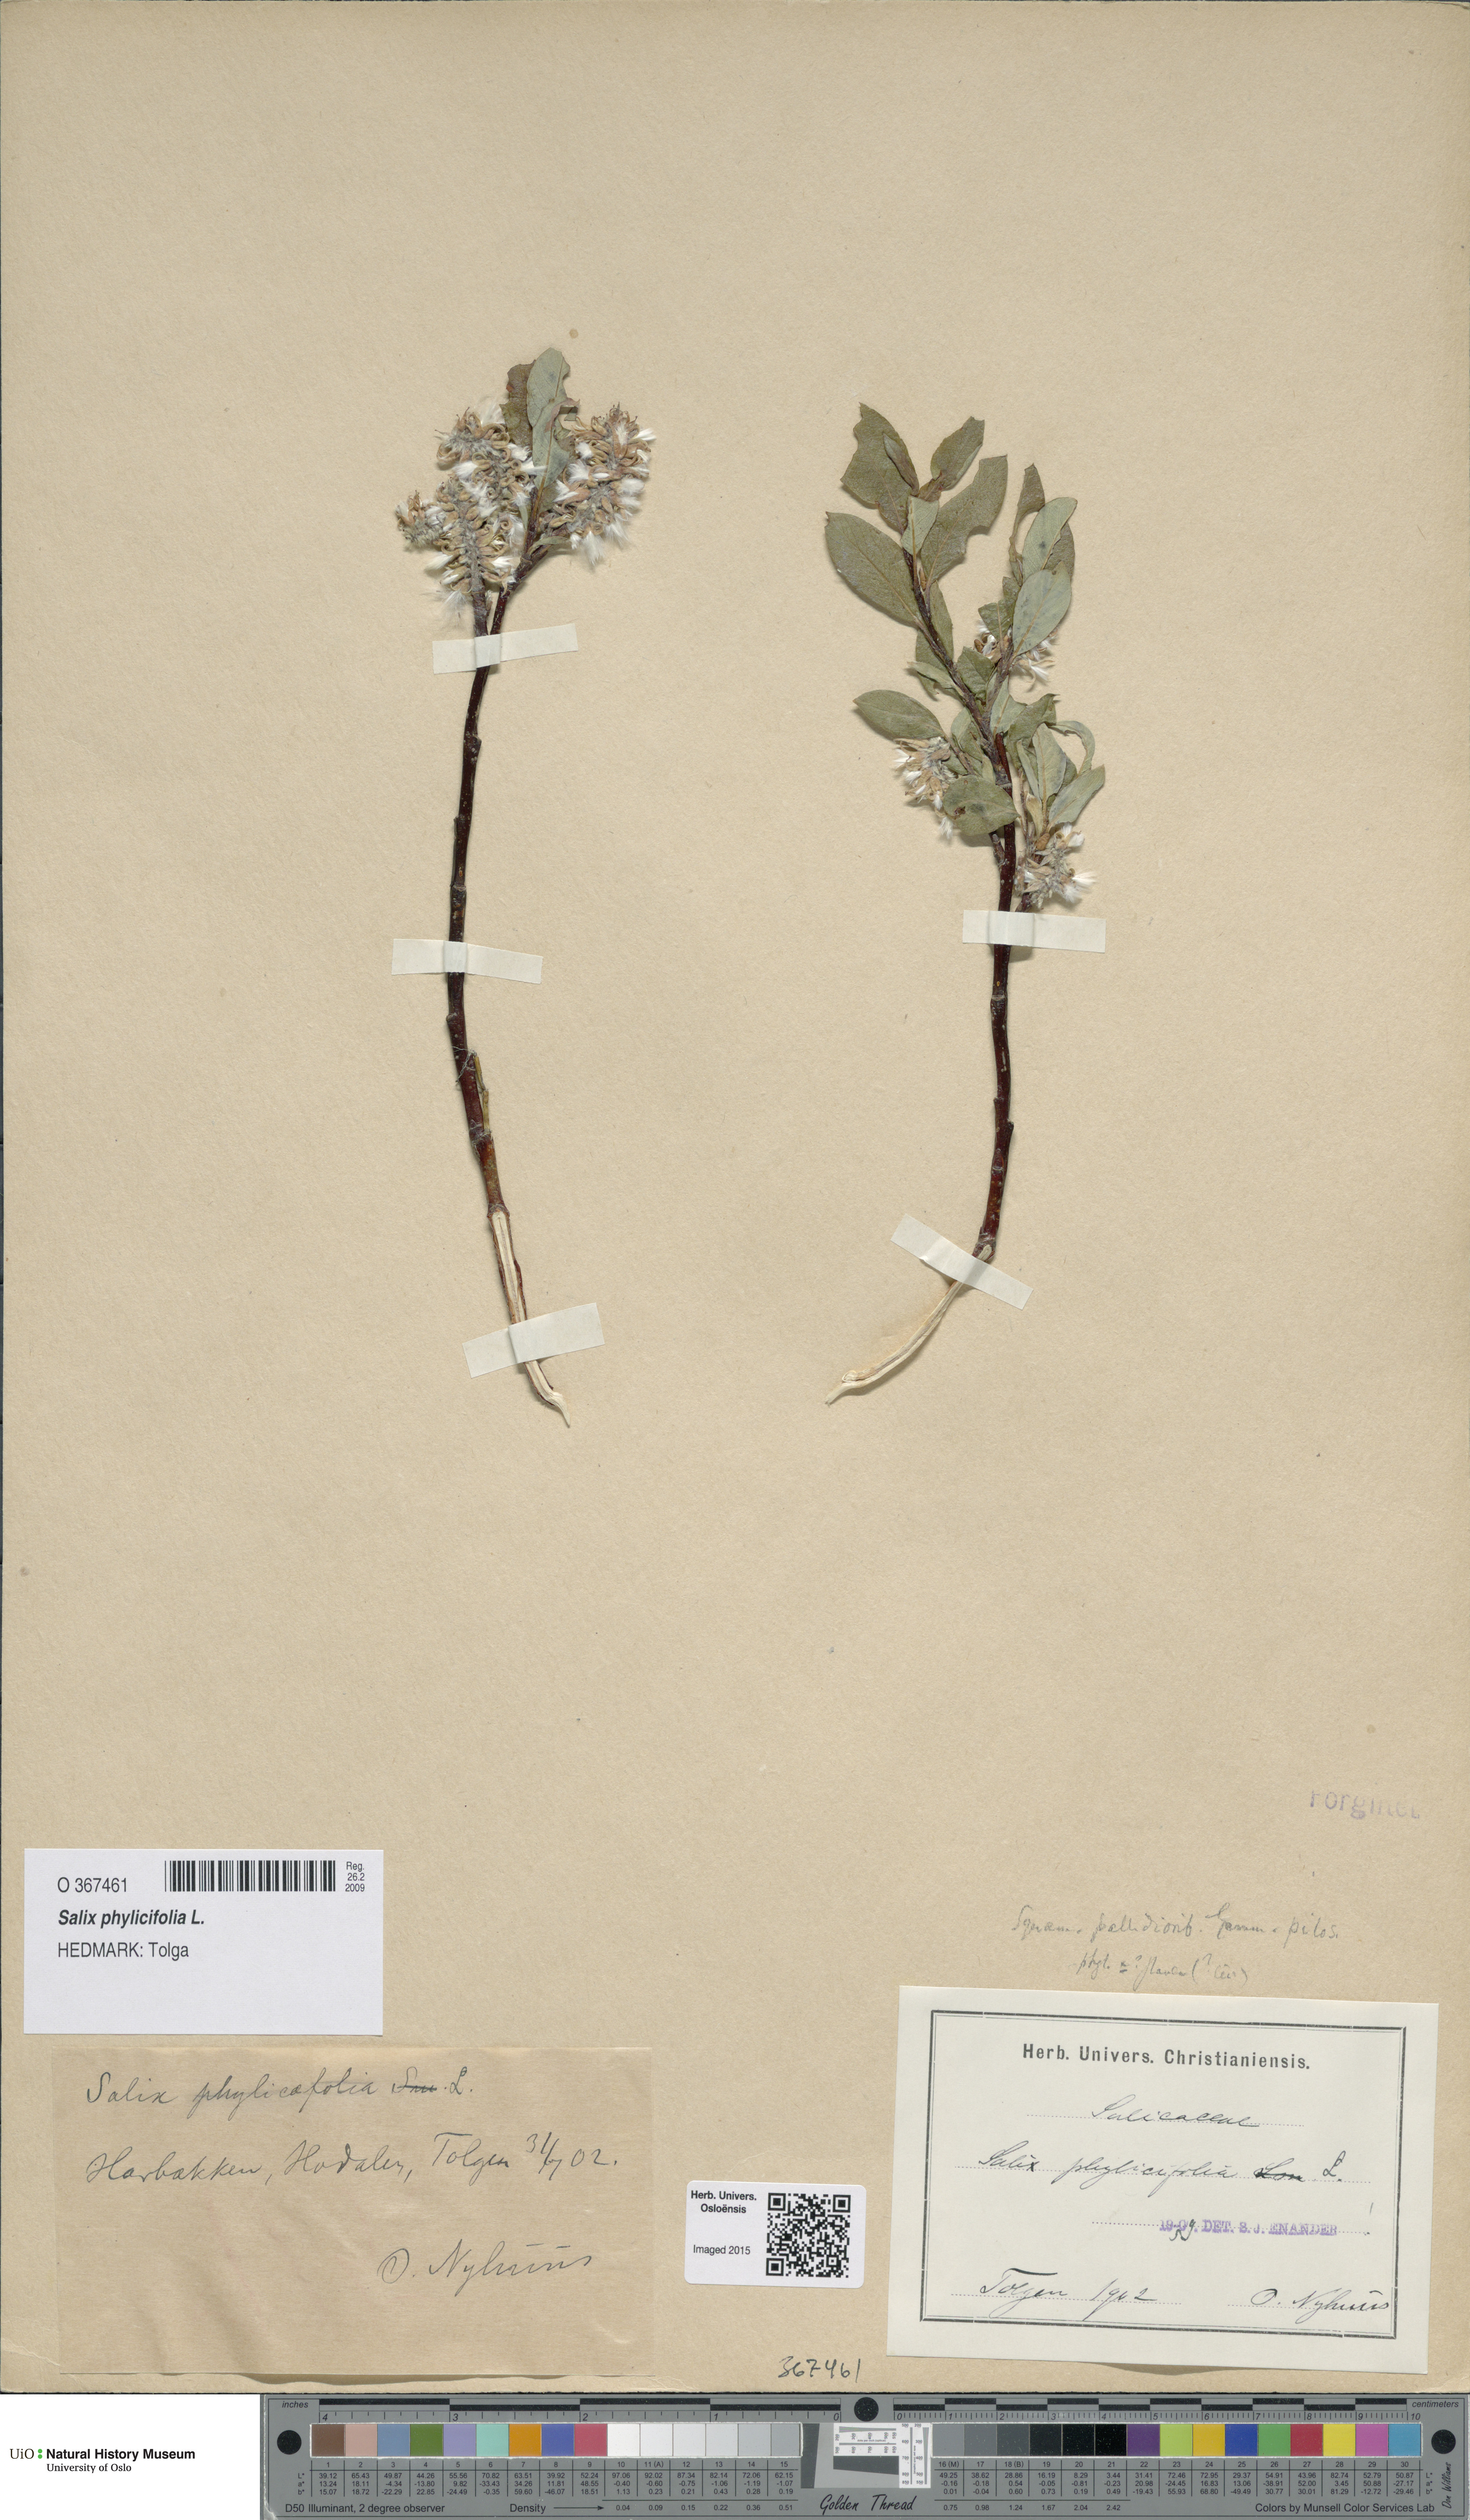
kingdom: Plantae
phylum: Tracheophyta
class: Magnoliopsida
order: Malpighiales
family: Salicaceae
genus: Salix
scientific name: Salix phylicifolia
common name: Tea-leaved willow
